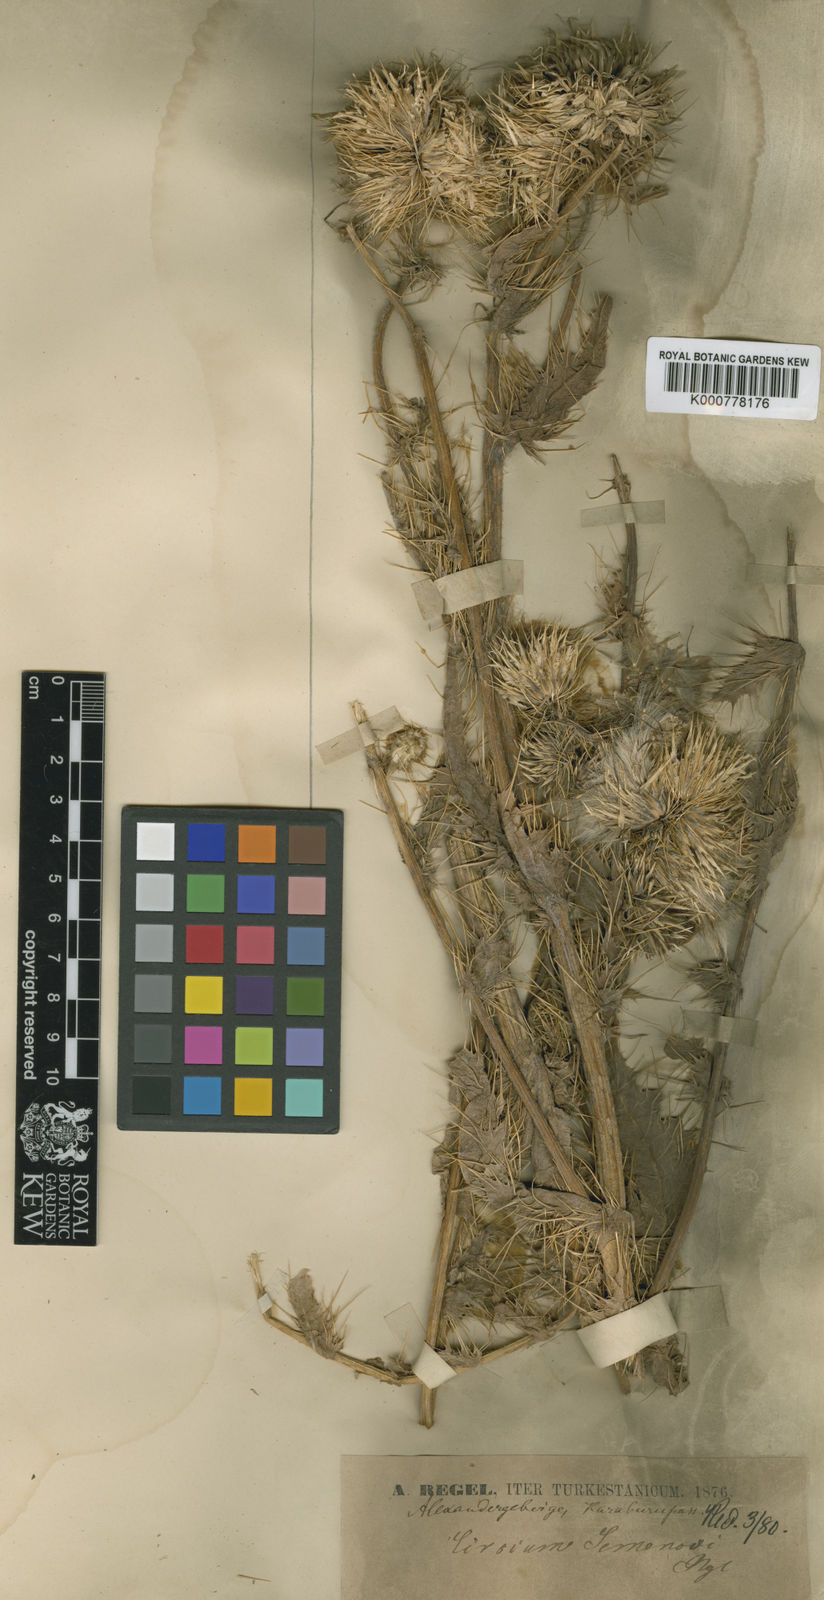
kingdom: Plantae
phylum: Tracheophyta
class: Magnoliopsida
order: Asterales
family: Asteraceae
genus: Cirsium
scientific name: Cirsium
